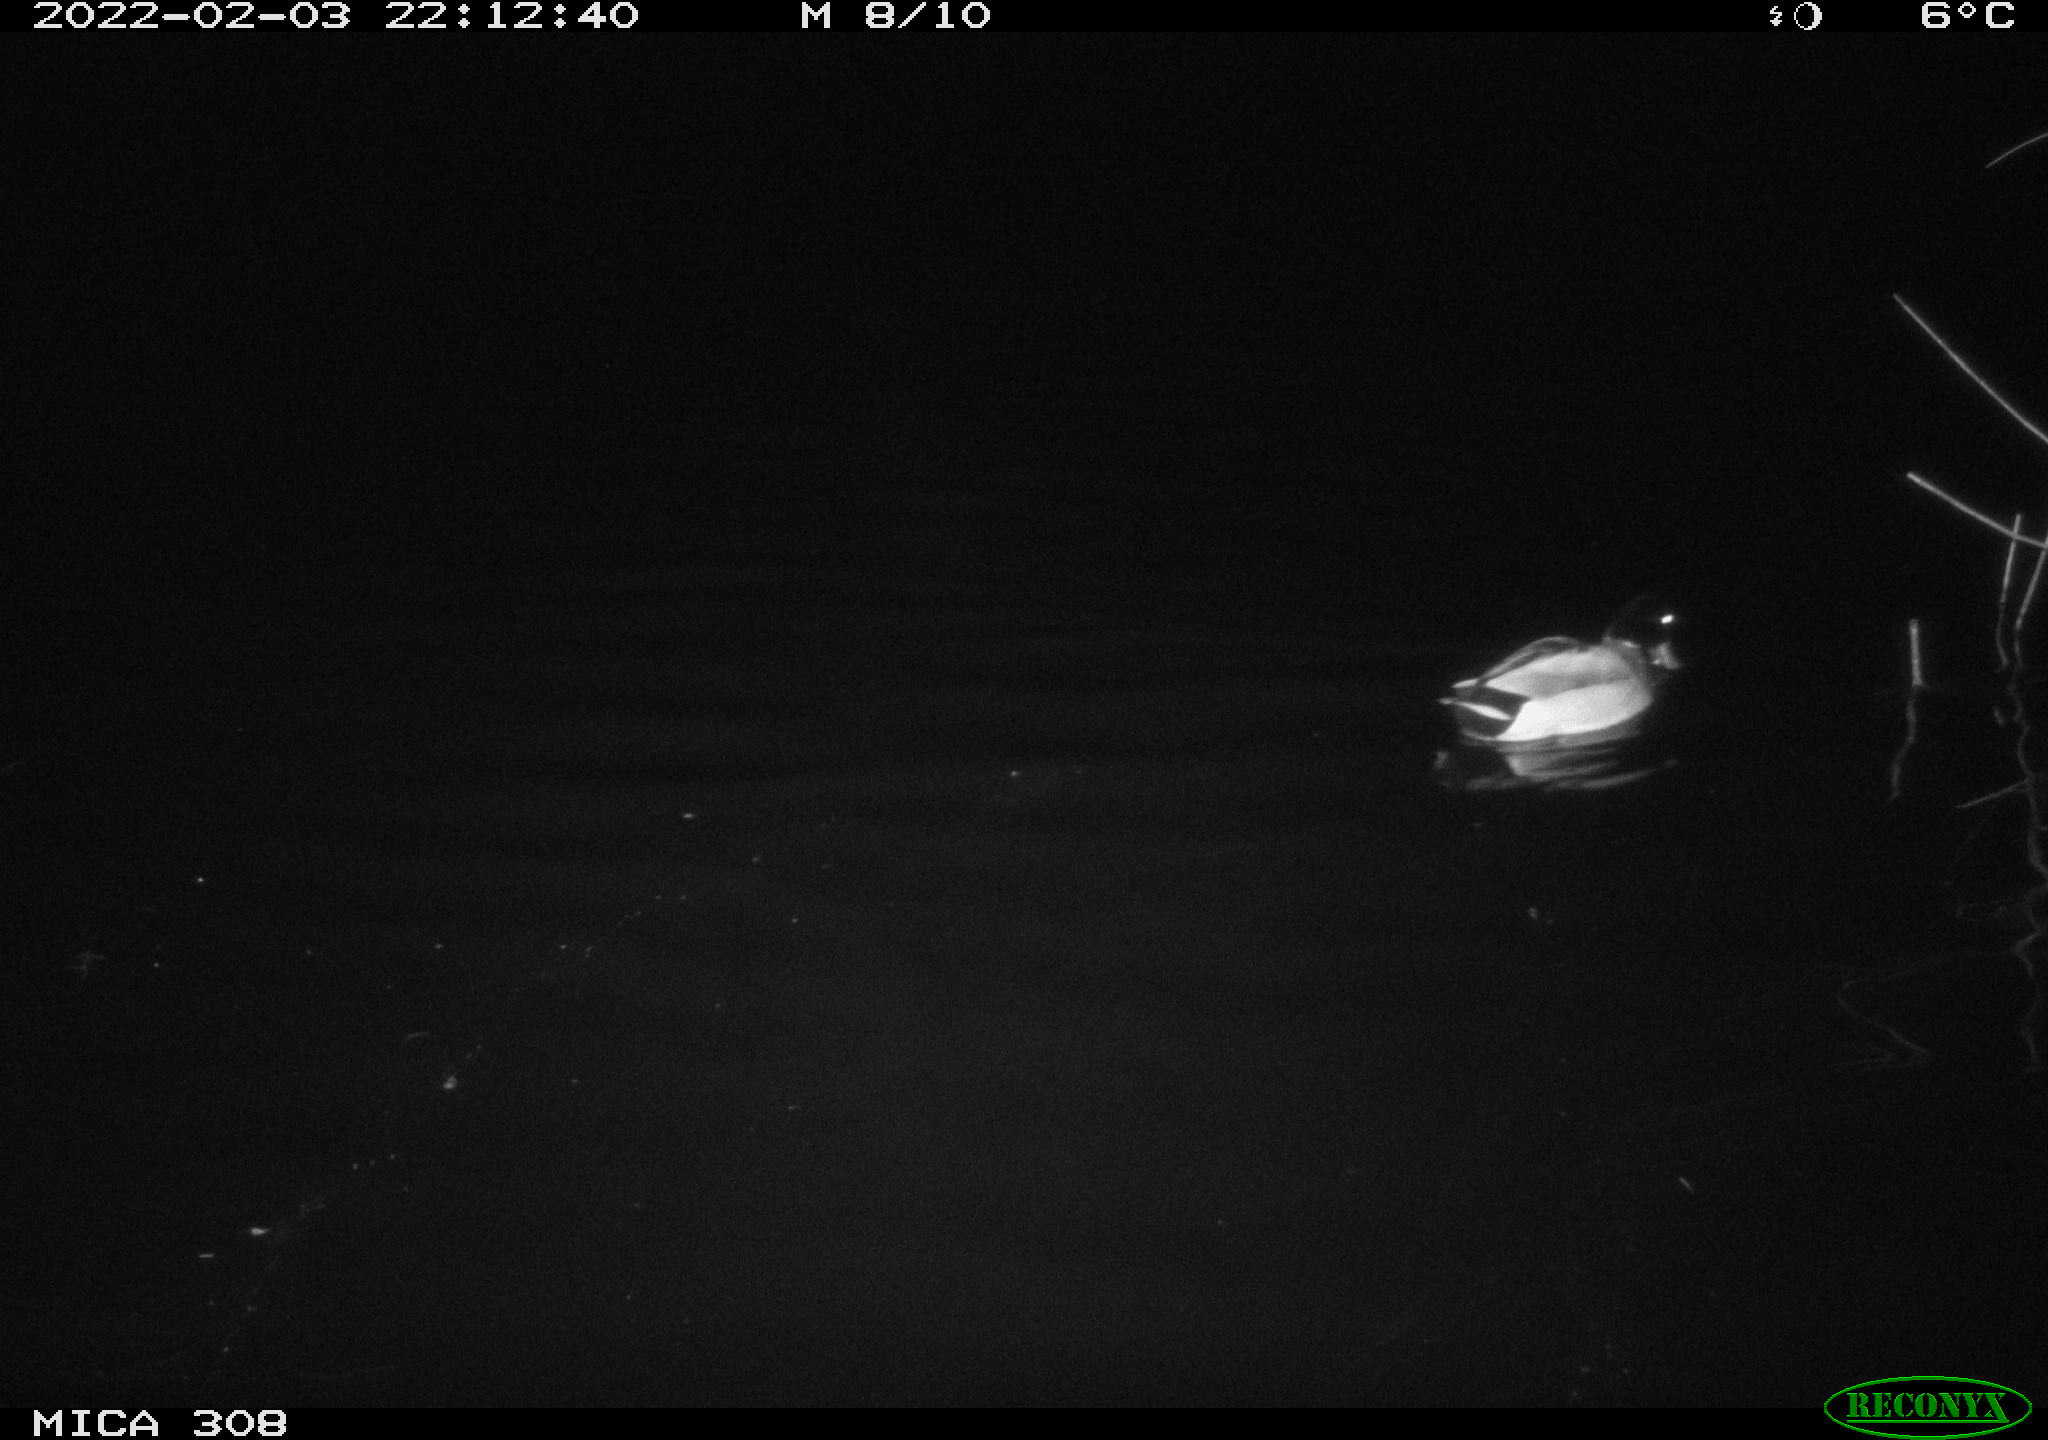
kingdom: Animalia
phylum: Chordata
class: Aves
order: Anseriformes
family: Anatidae
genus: Anas
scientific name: Anas platyrhynchos
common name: Mallard
